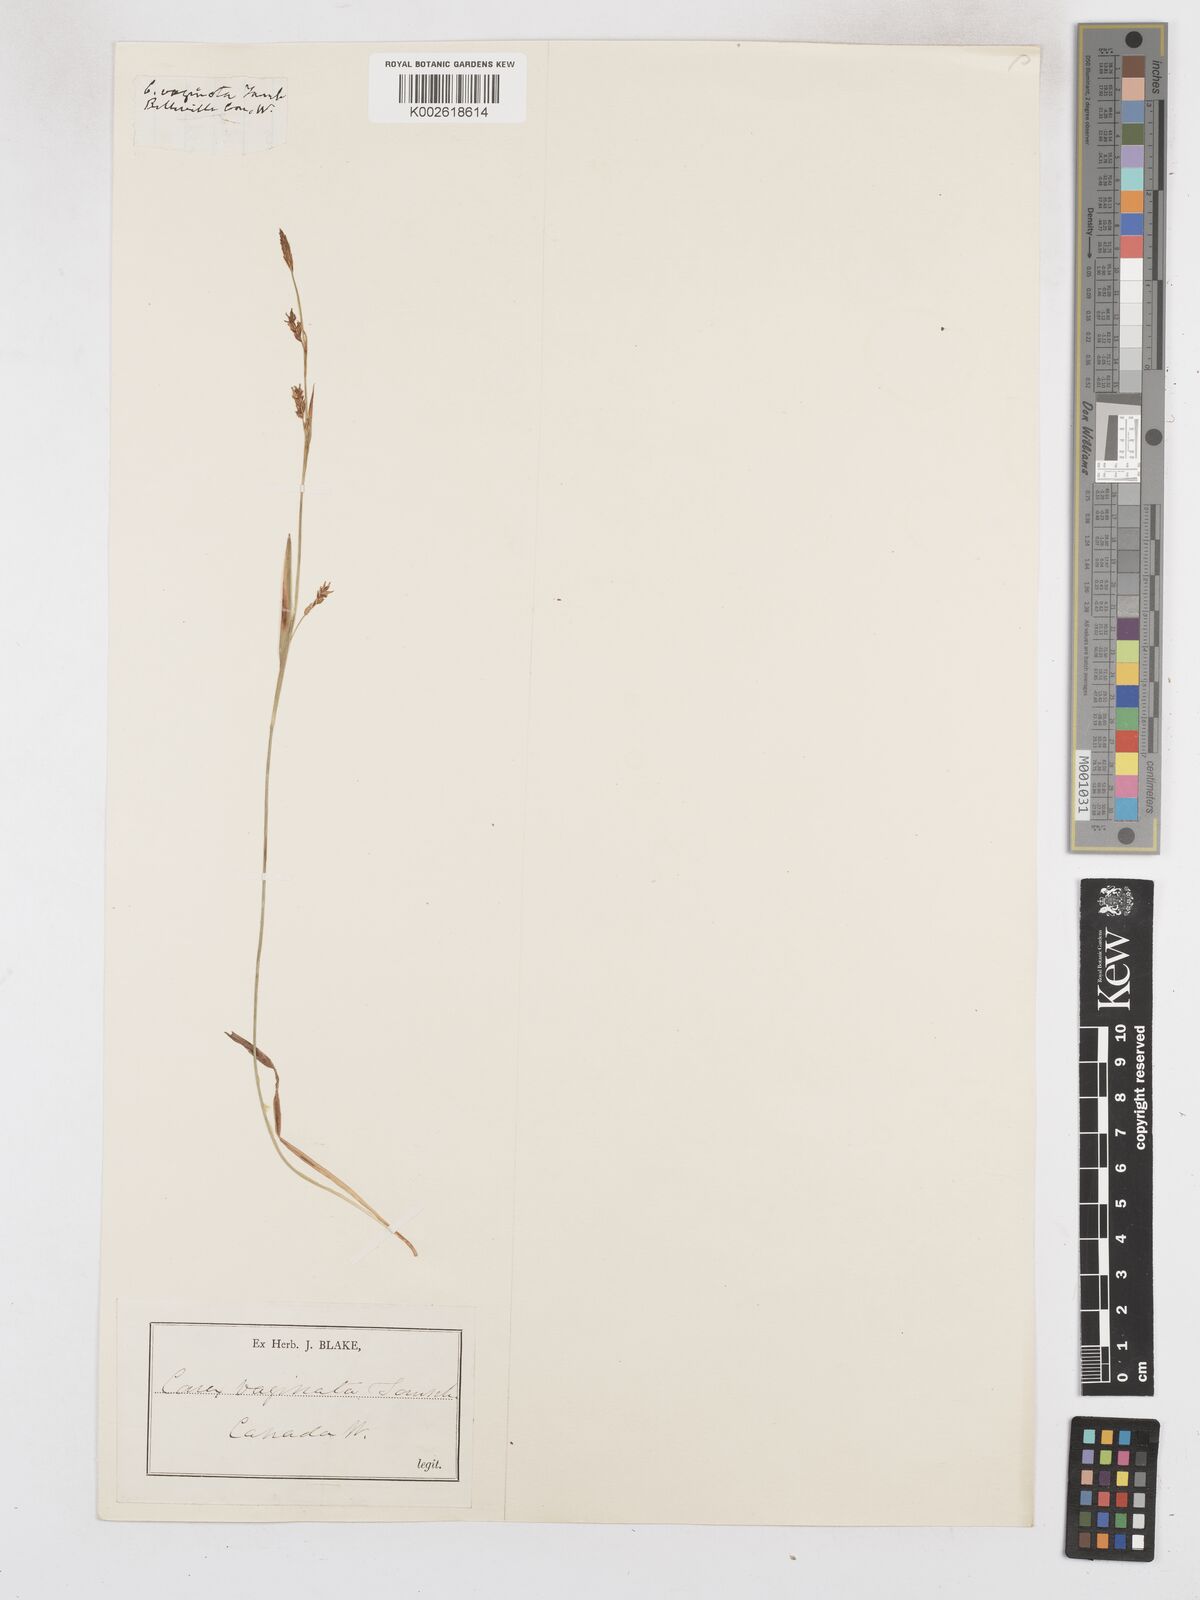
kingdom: Plantae
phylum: Tracheophyta
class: Liliopsida
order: Poales
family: Cyperaceae
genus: Carex
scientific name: Carex vaginata
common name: Sheathed sedge
